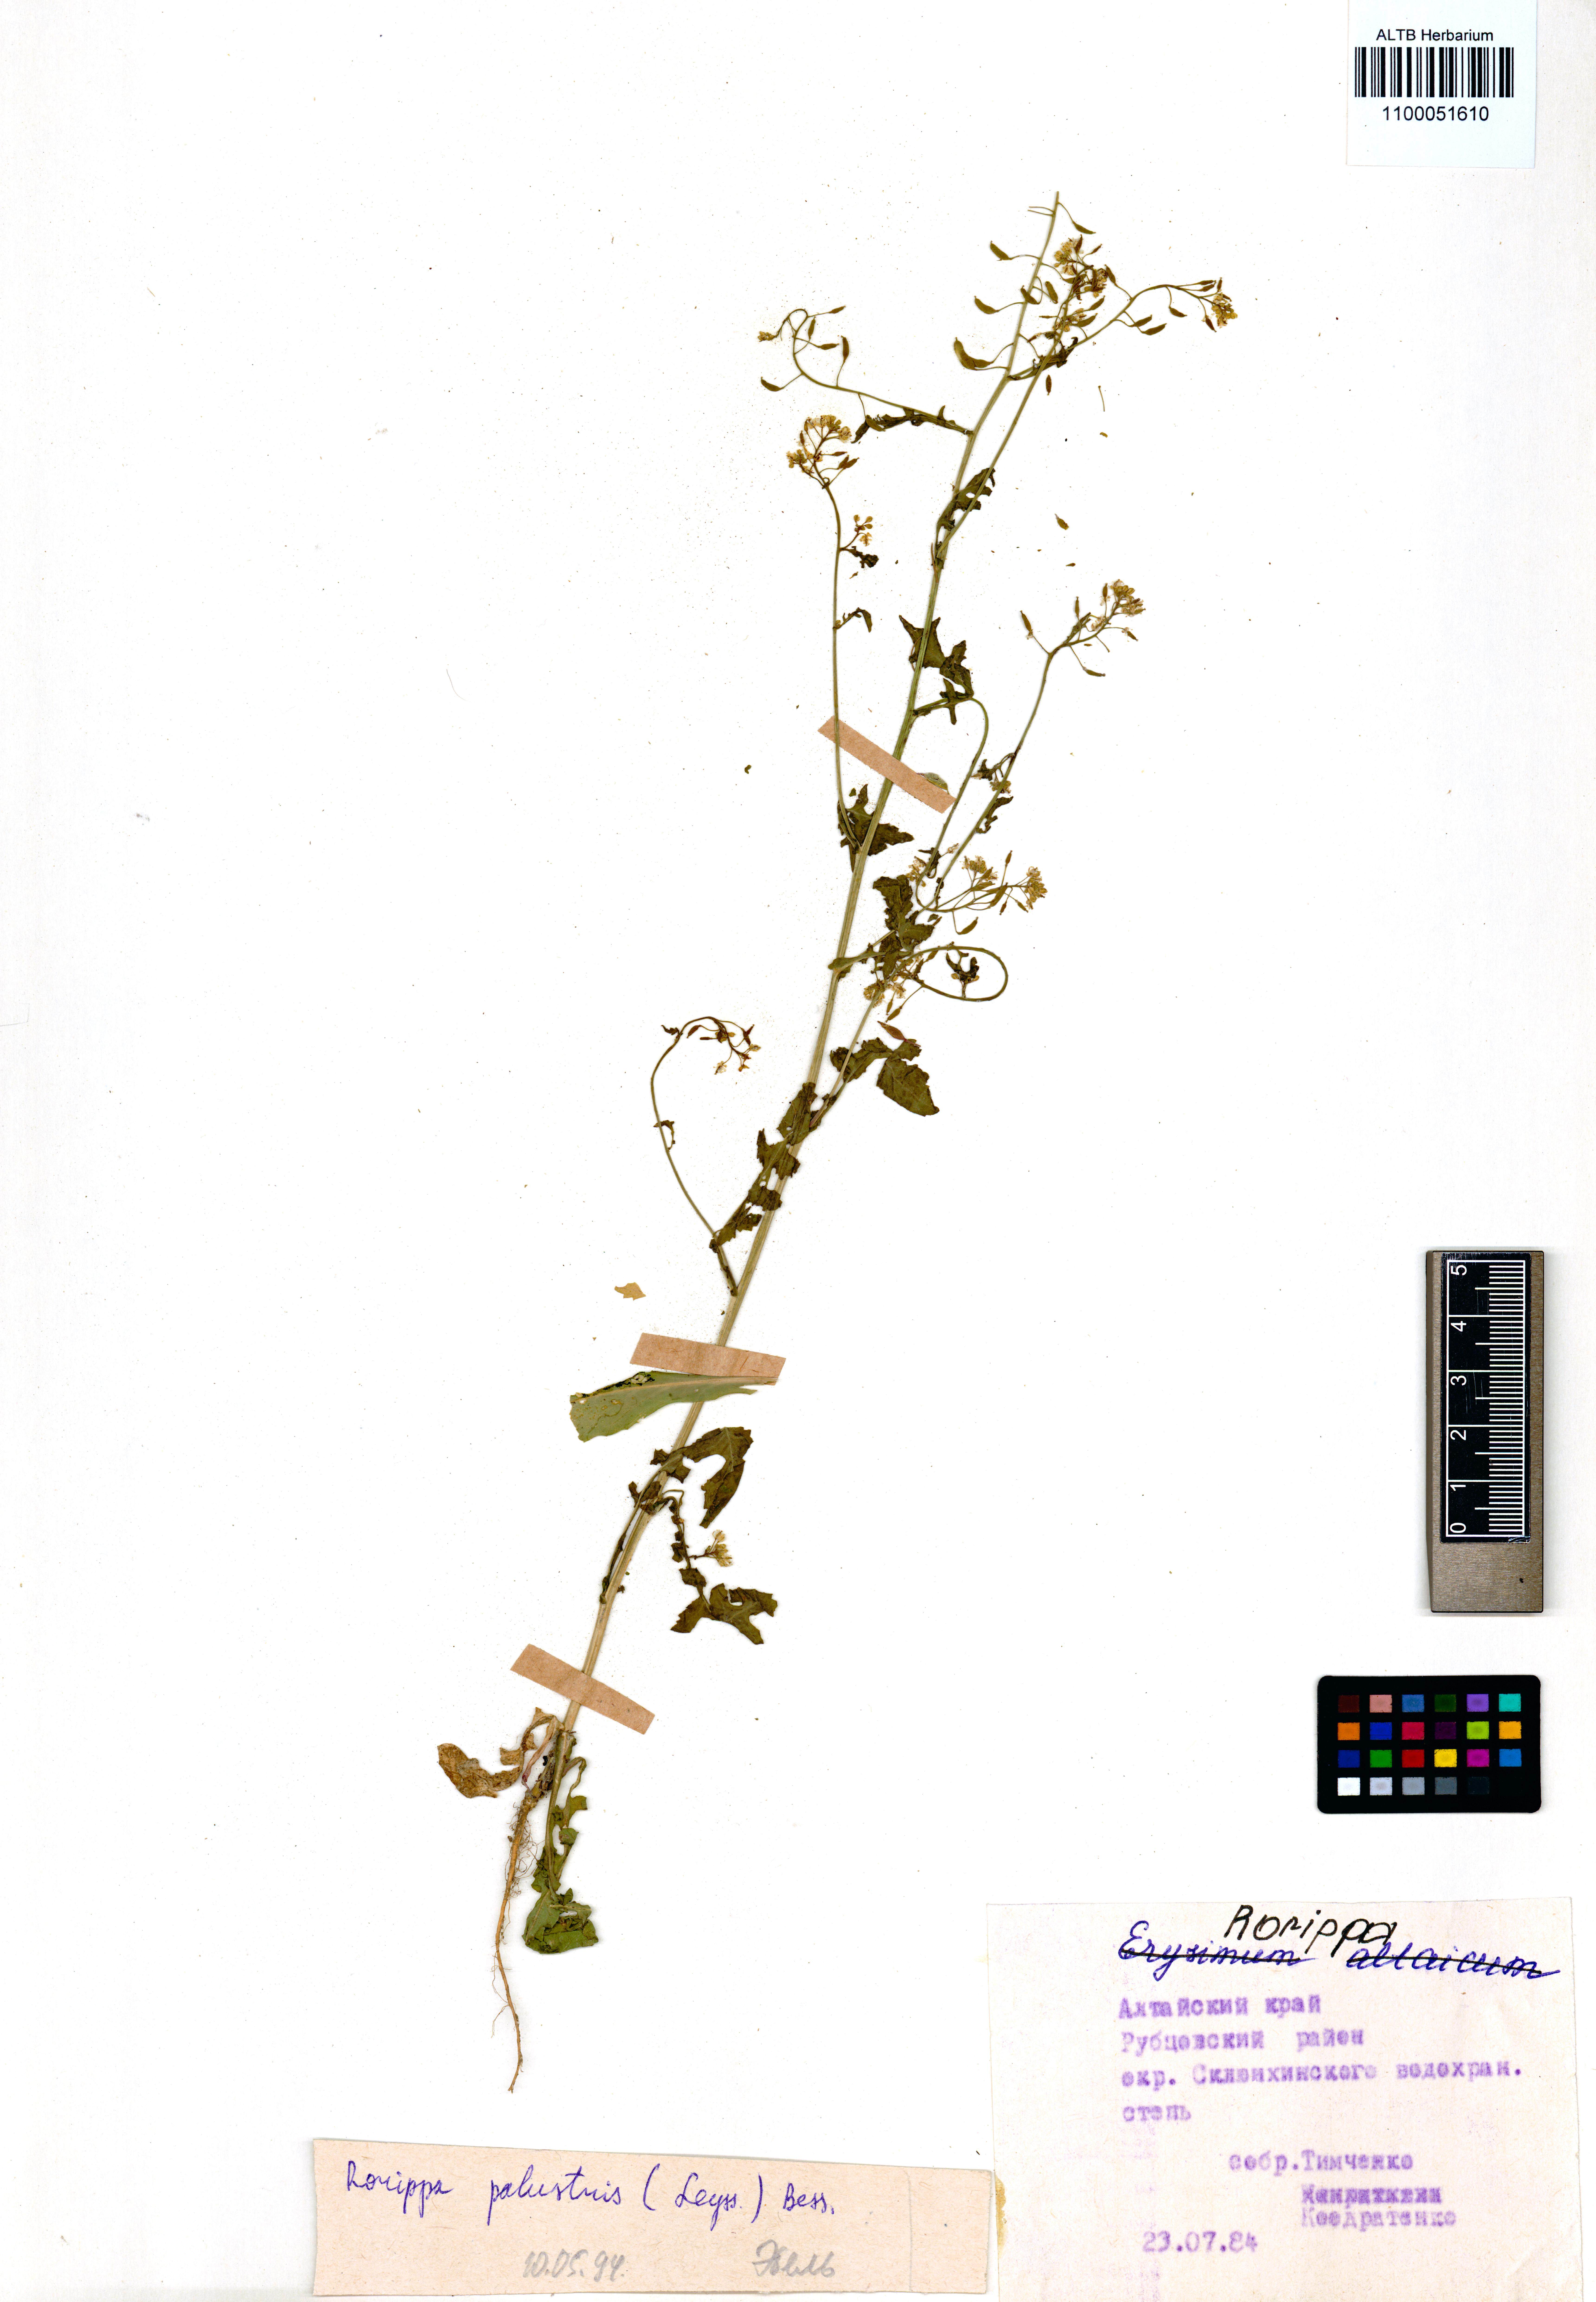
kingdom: Plantae
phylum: Tracheophyta
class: Magnoliopsida
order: Brassicales
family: Brassicaceae
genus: Rorippa
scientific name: Rorippa palustris
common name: Marsh yellow-cress
